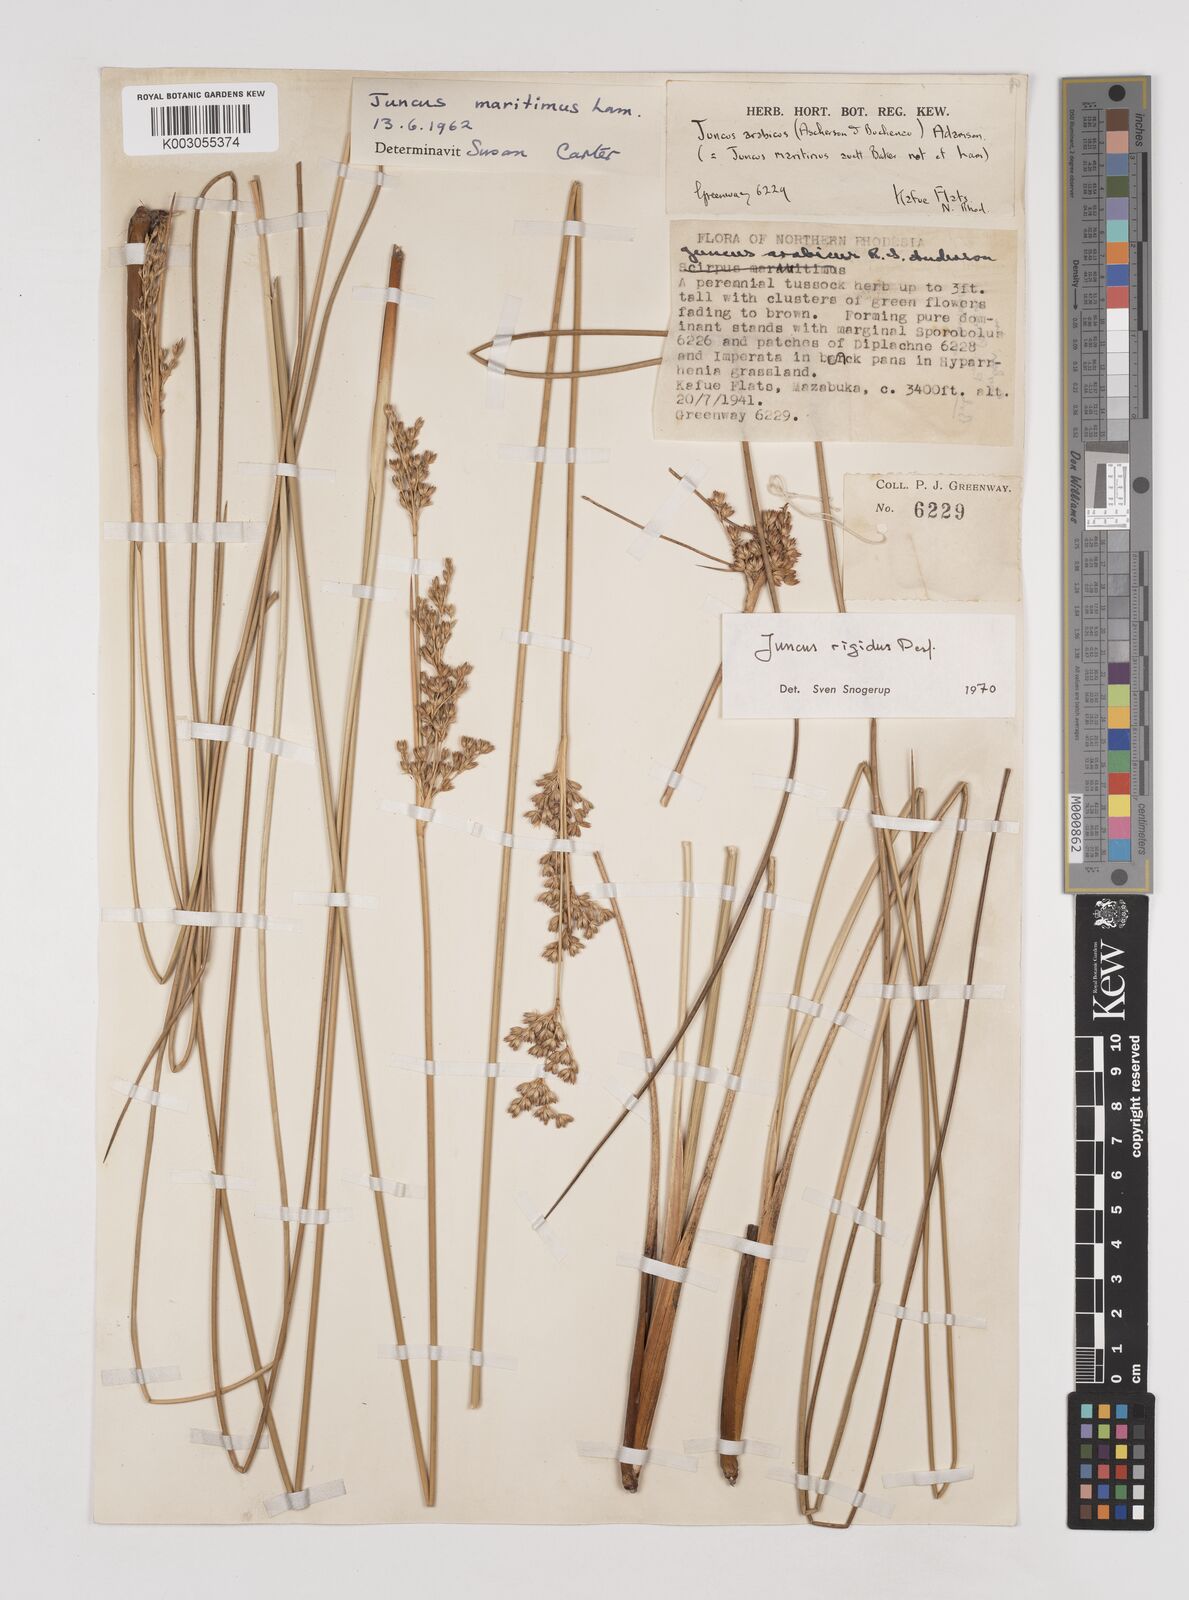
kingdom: Plantae
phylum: Tracheophyta
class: Liliopsida
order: Poales
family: Juncaceae
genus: Juncus
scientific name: Juncus rigidus
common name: Hard sea rush
